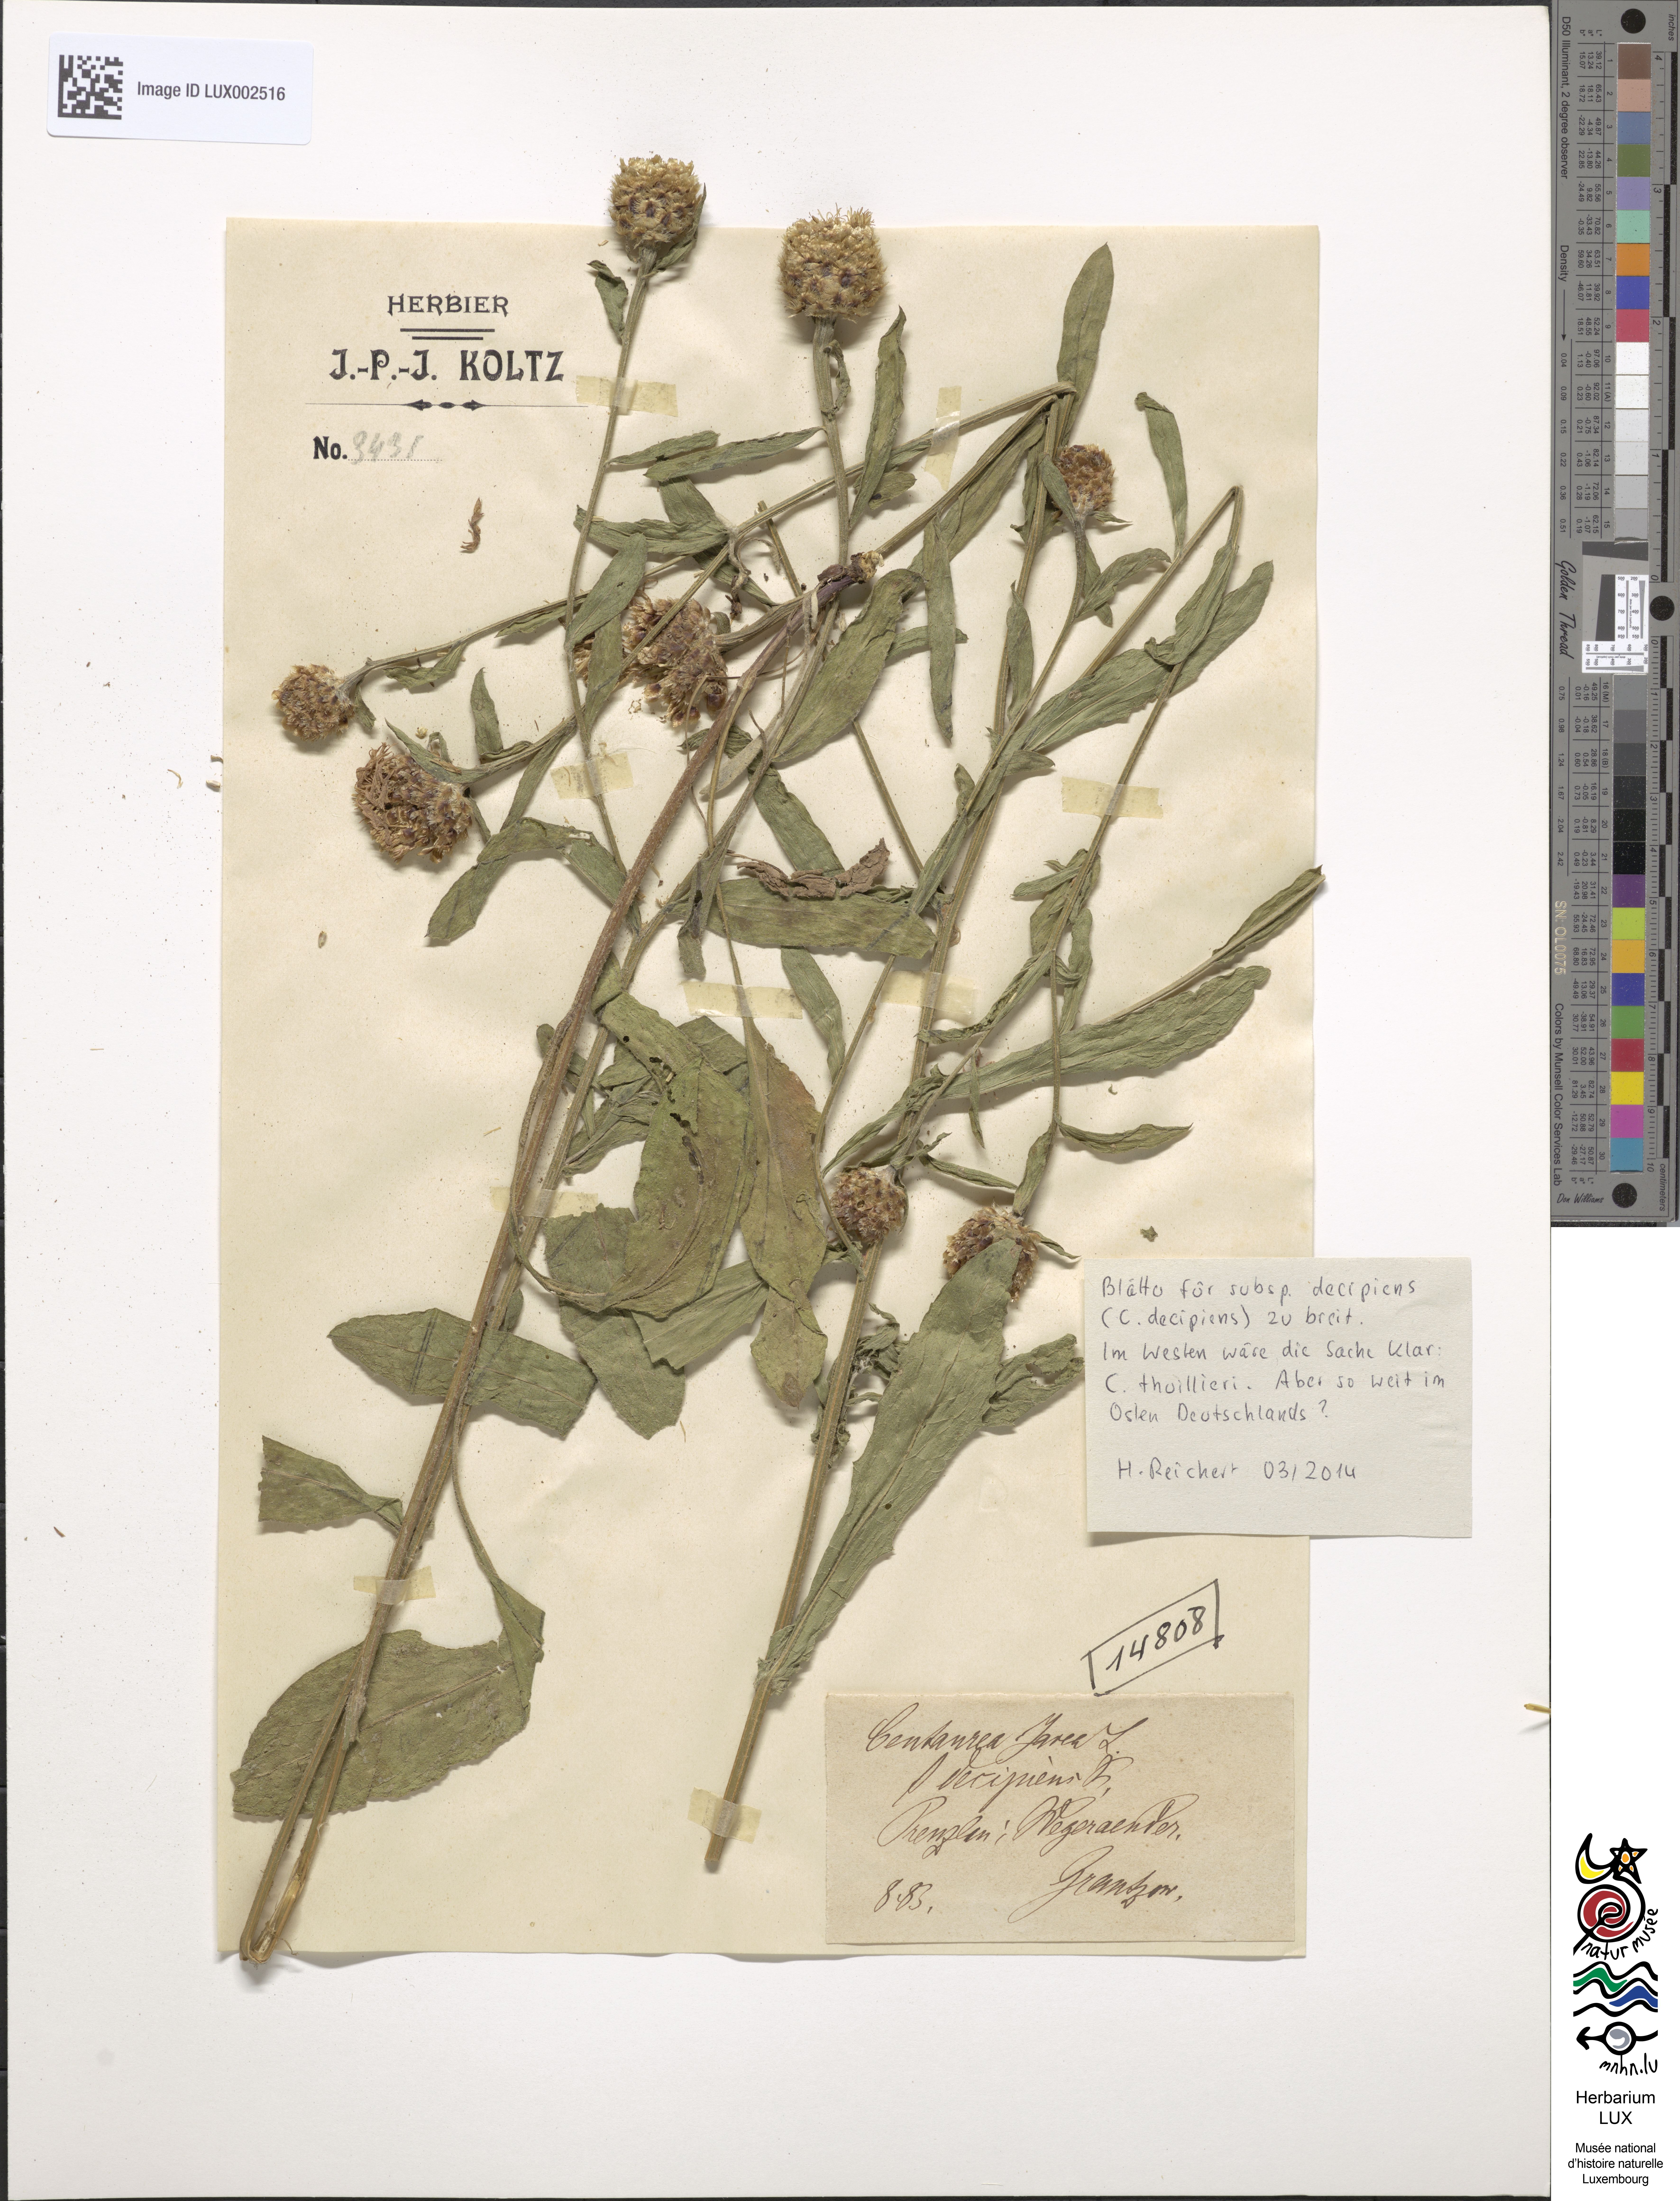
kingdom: Plantae
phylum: Tracheophyta
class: Magnoliopsida
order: Asterales
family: Asteraceae
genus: Centaurea
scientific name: Centaurea decipiens
